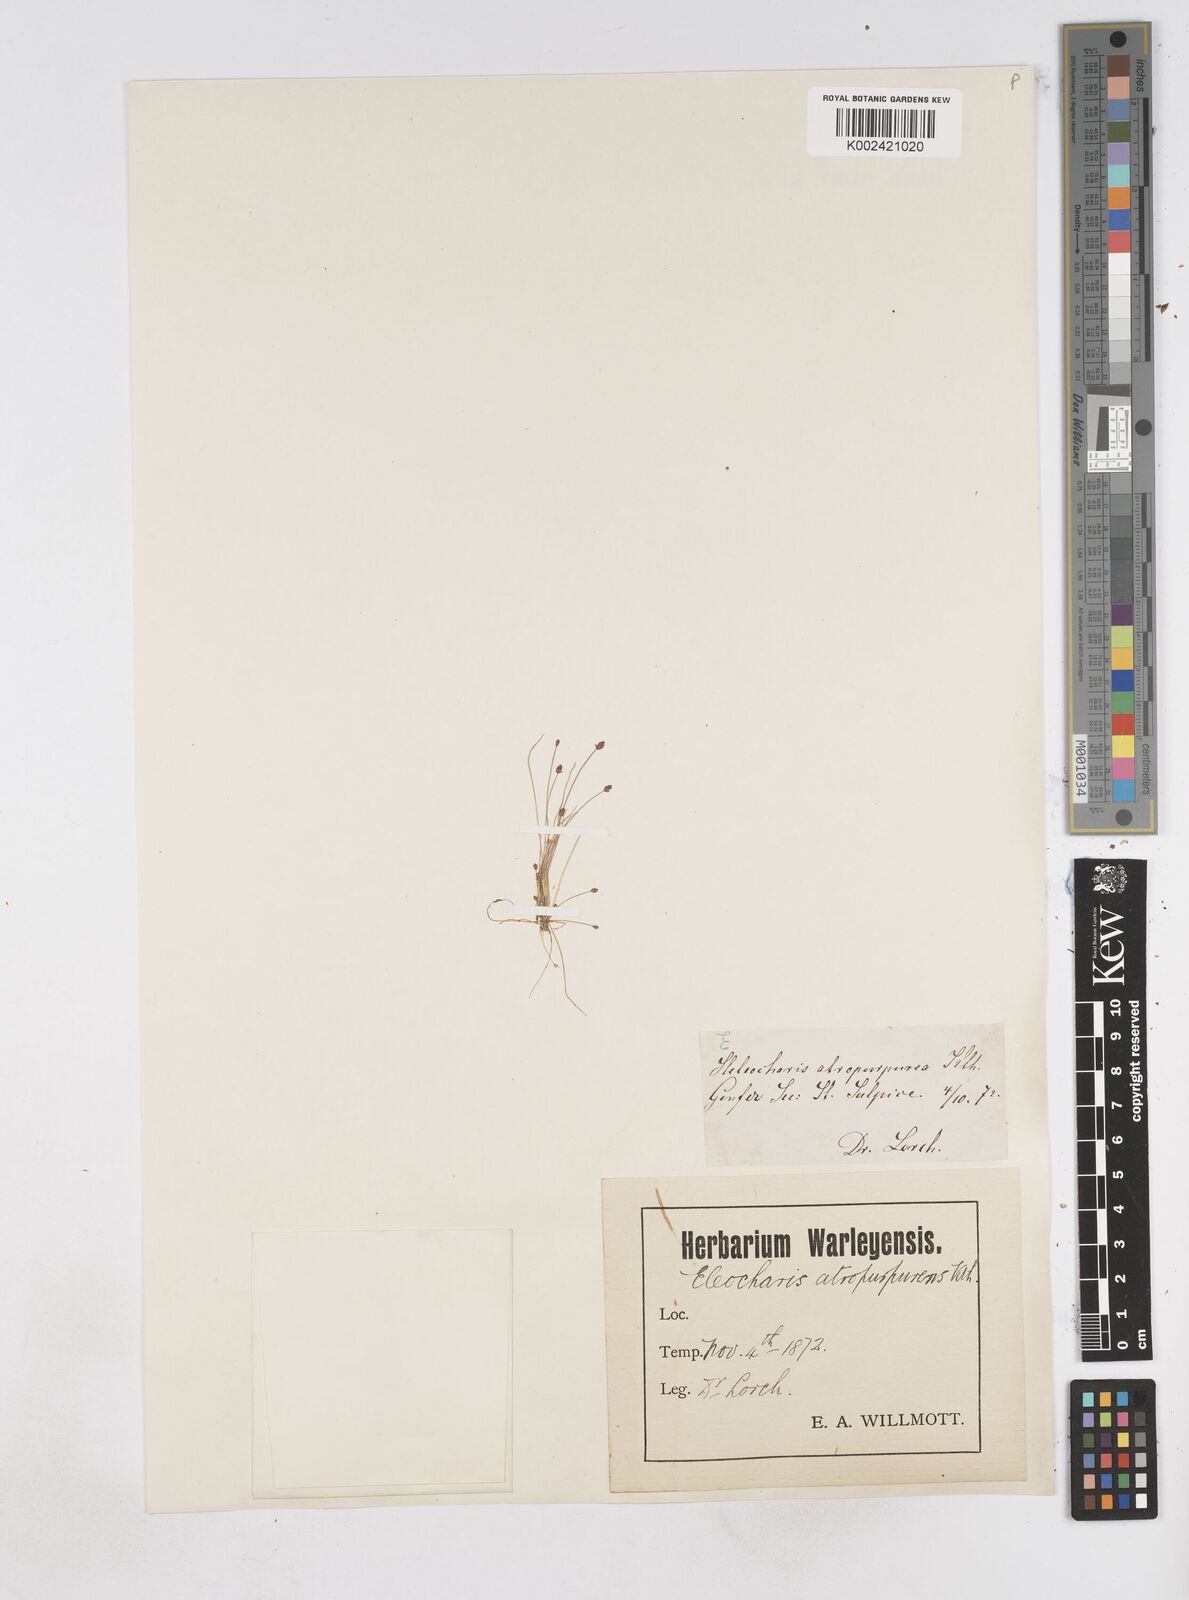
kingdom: Plantae
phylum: Tracheophyta
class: Liliopsida
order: Poales
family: Cyperaceae
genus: Eleocharis
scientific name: Eleocharis atropurpurea
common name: Purple spikerush
